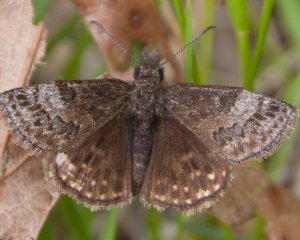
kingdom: Animalia
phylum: Arthropoda
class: Insecta
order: Lepidoptera
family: Hesperiidae
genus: Erynnis
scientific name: Erynnis icelus
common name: Dreamy Duskywing
